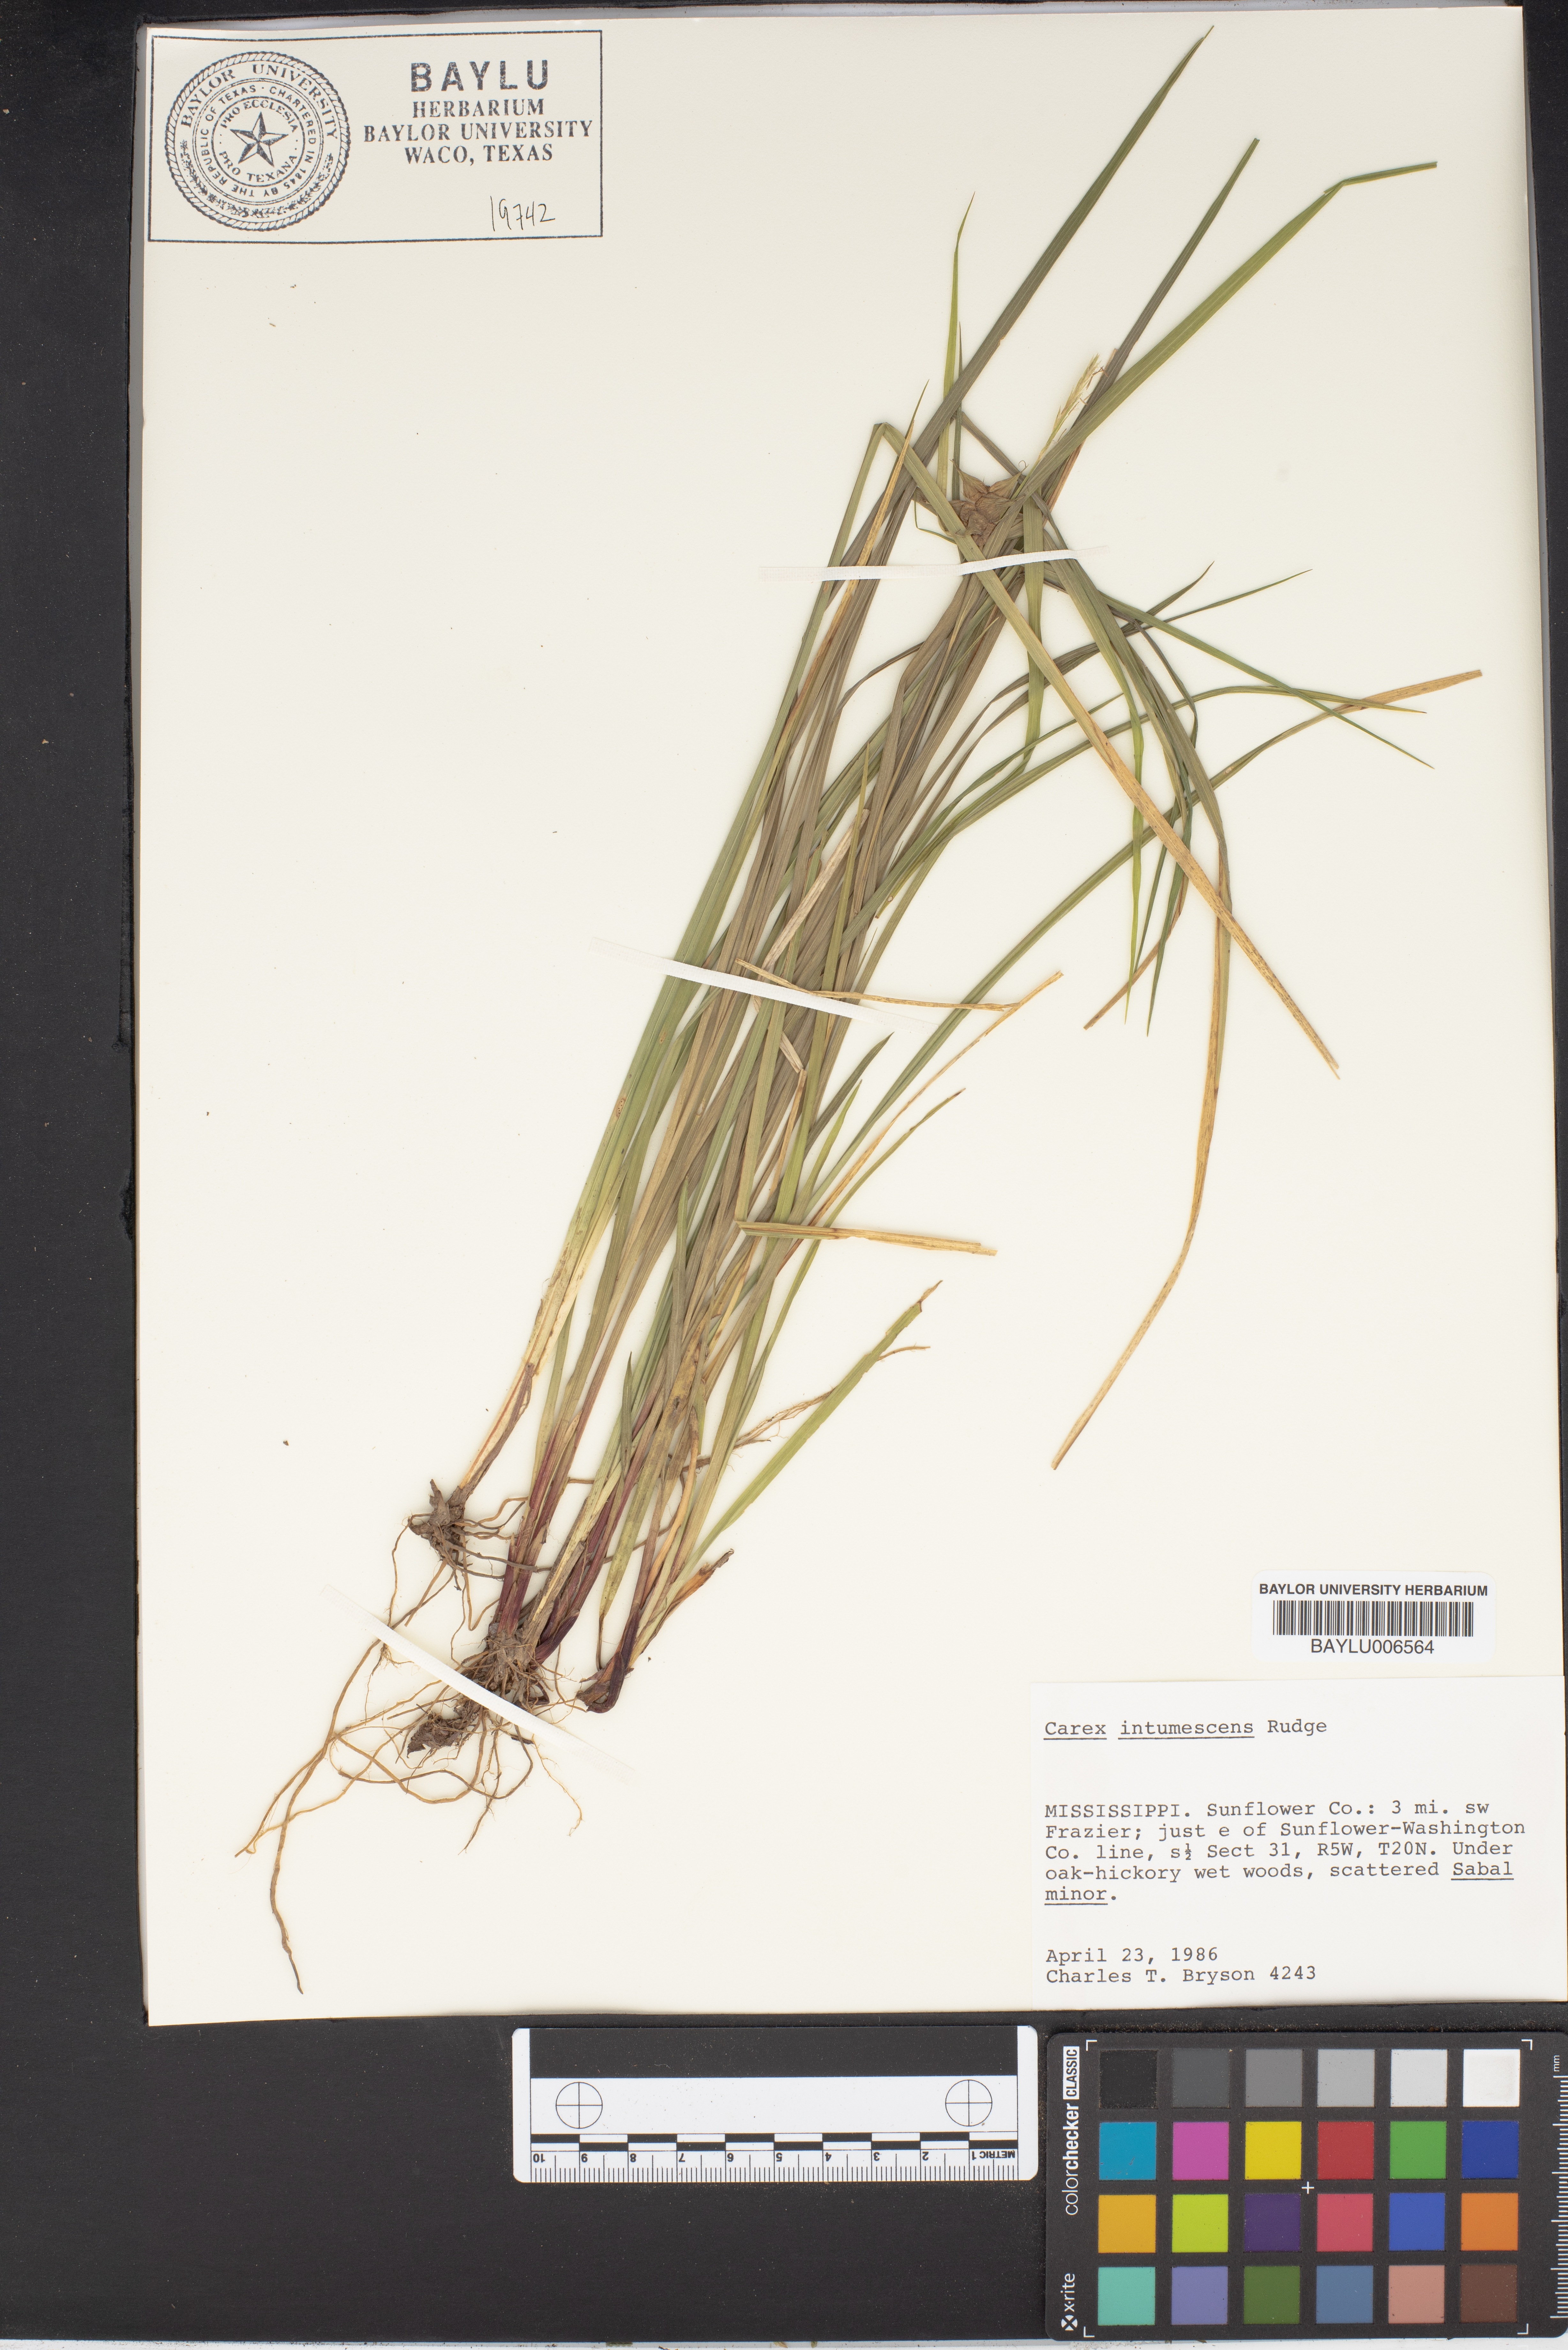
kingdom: Plantae
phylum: Tracheophyta
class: Liliopsida
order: Poales
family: Cyperaceae
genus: Carex
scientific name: Carex intumescens
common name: Greater bladder sedge
